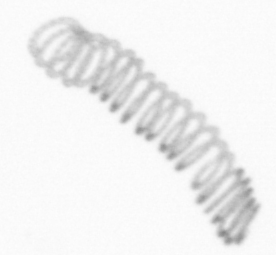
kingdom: Chromista
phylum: Ochrophyta
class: Bacillariophyceae
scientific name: Bacillariophyceae
